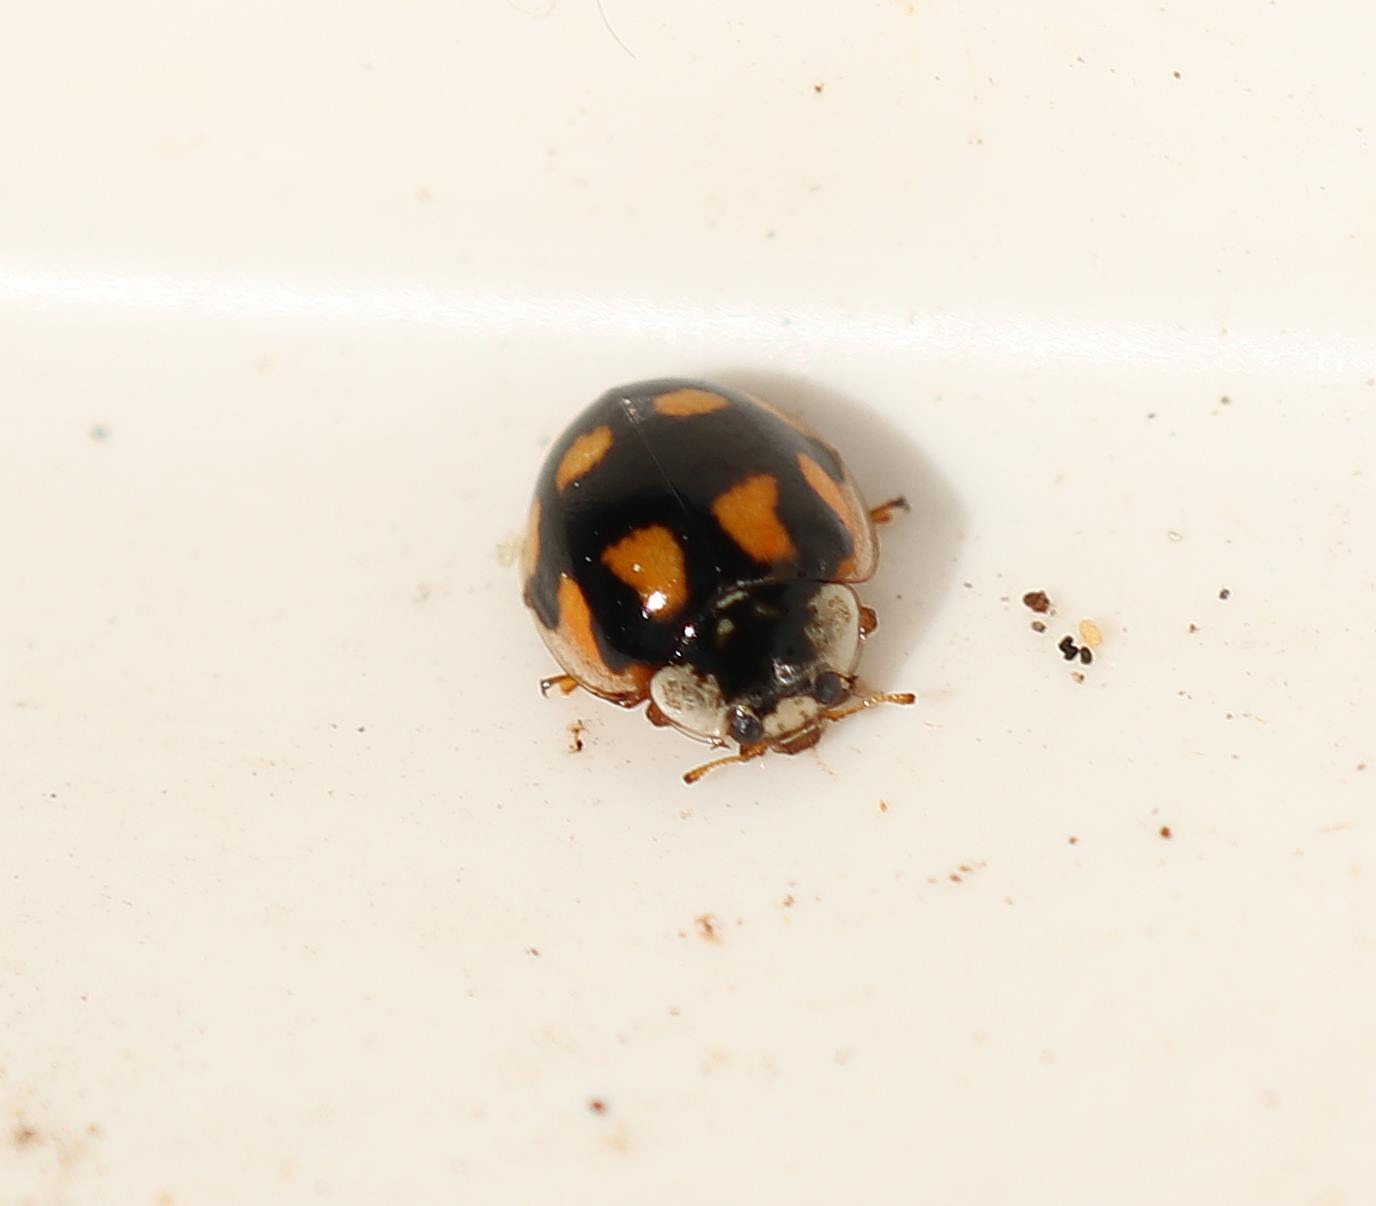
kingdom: Animalia
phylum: Arthropoda
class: Insecta
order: Coleoptera
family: Coccinellidae
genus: Adalia
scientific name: Adalia decempunctata
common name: Tiplettet mariehøne
